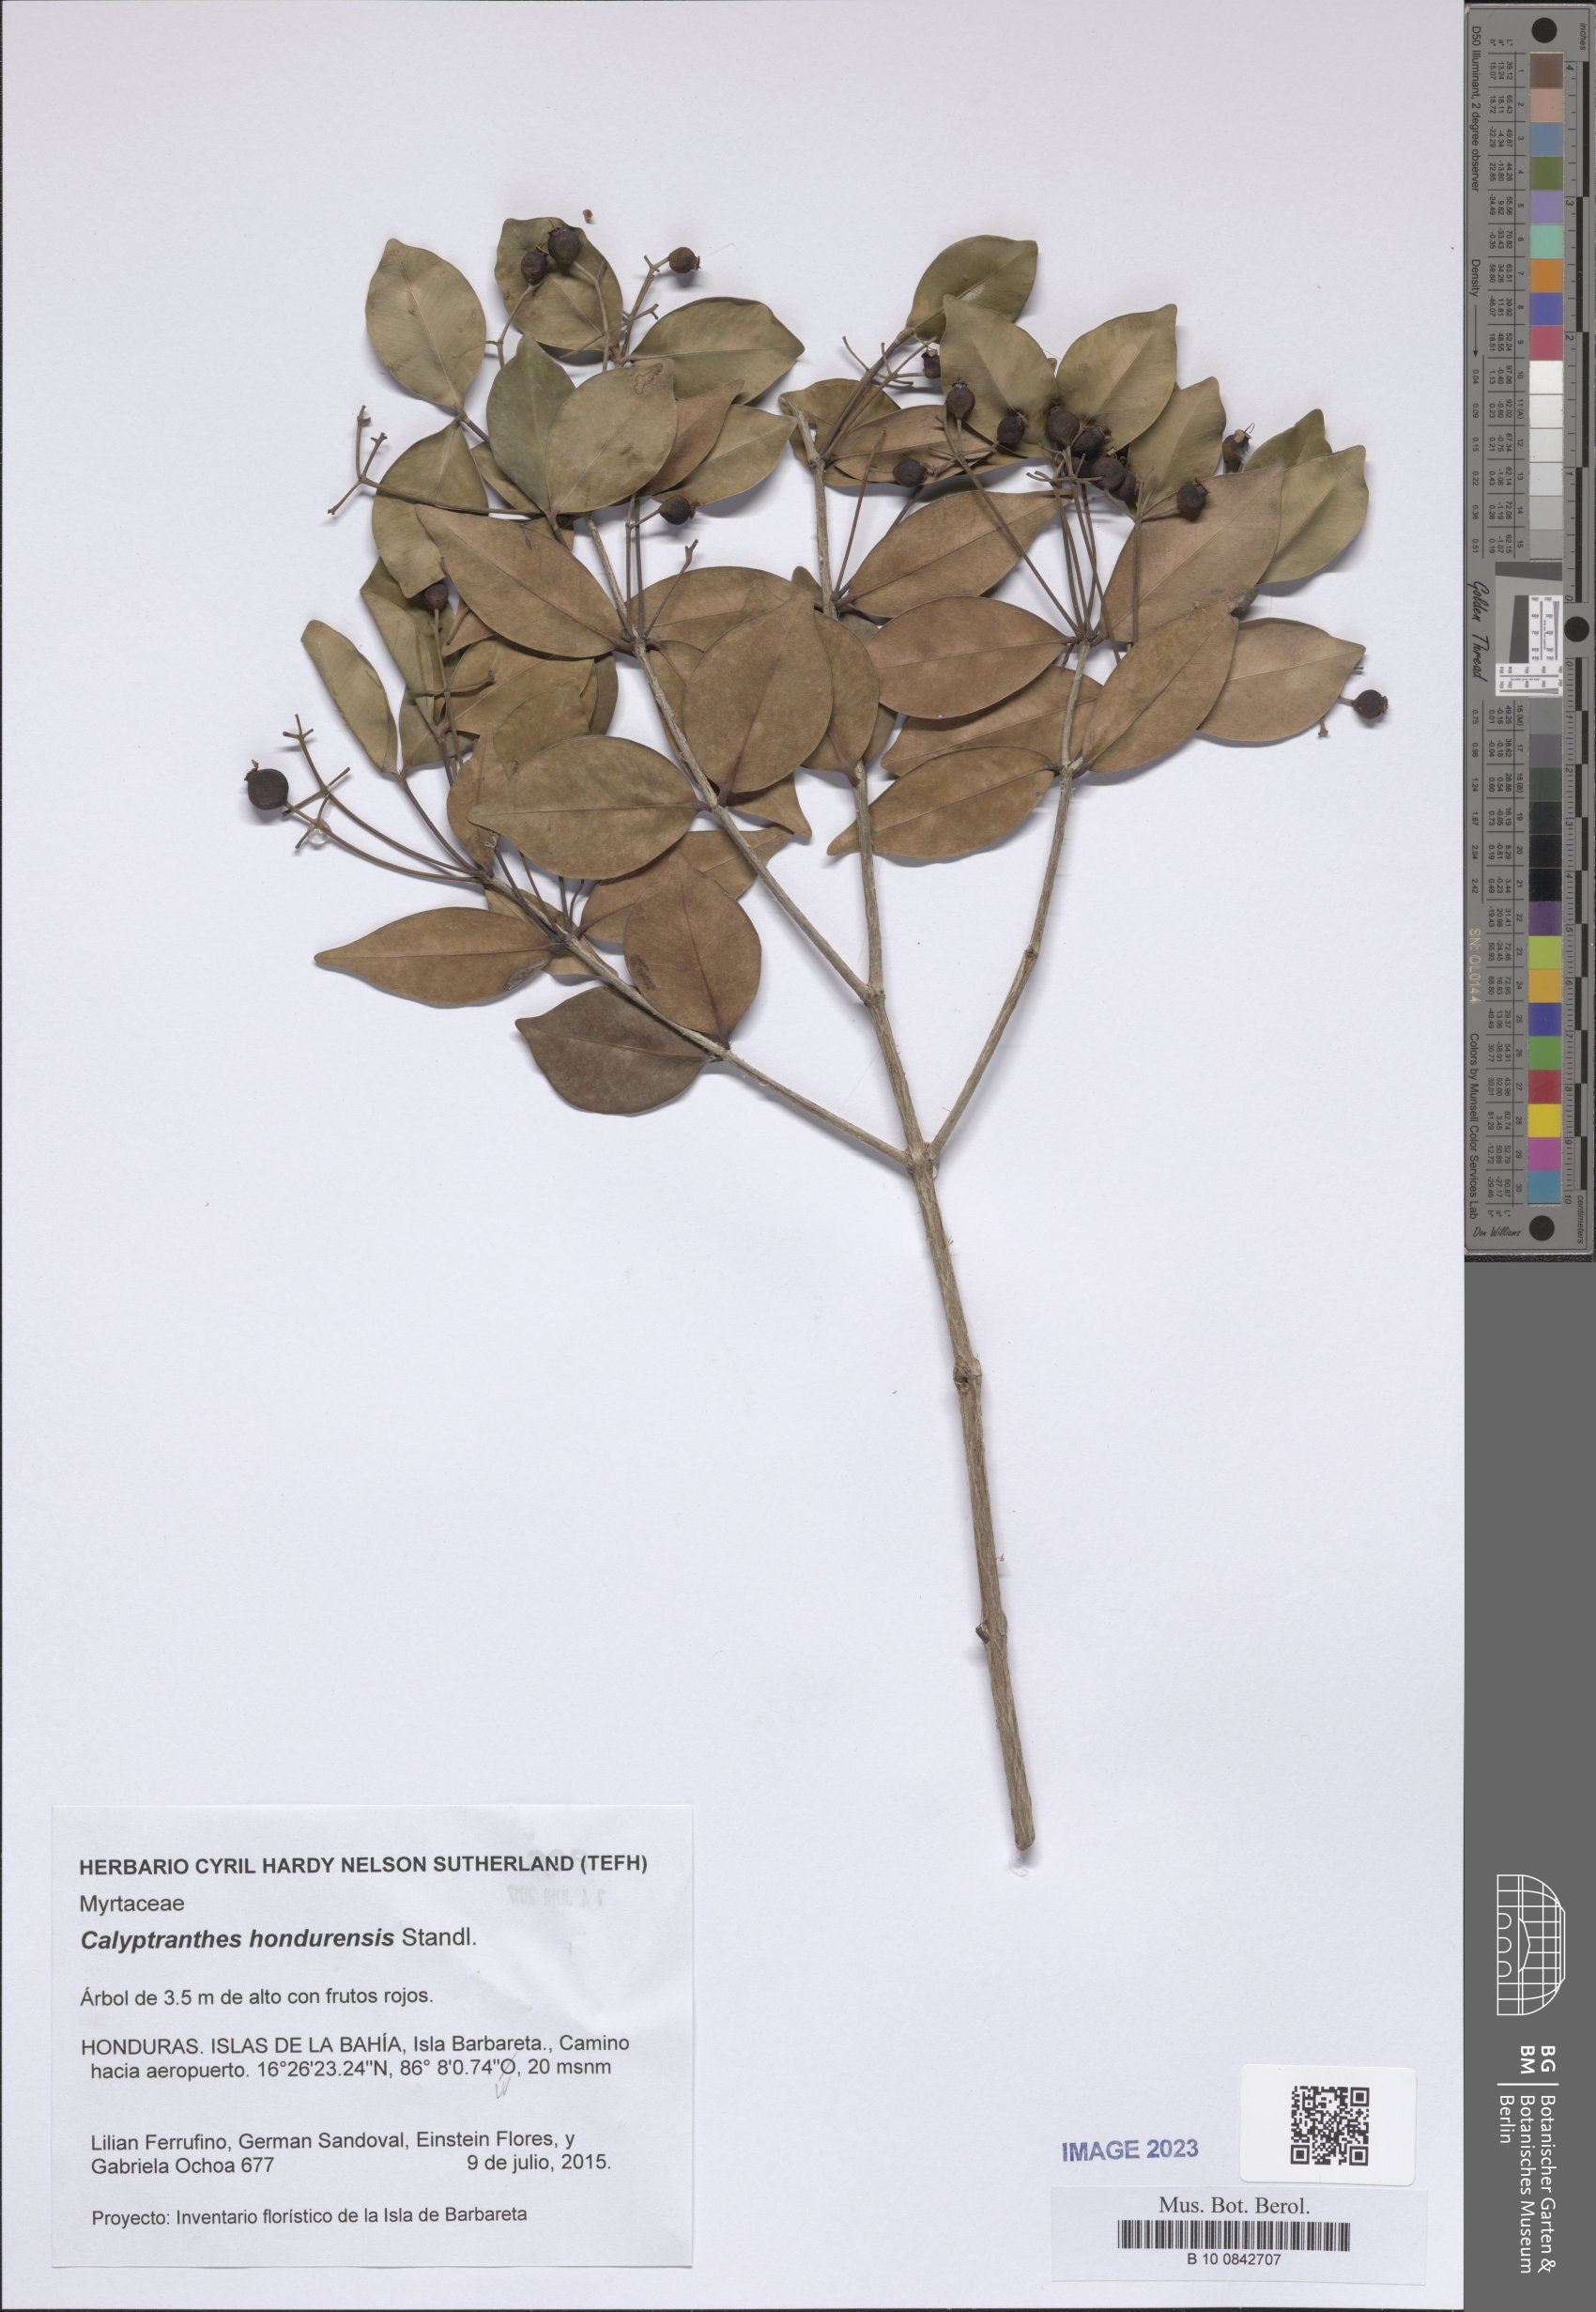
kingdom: Plantae
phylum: Tracheophyta
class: Magnoliopsida
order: Myrtales
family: Myrtaceae
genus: Myrcia
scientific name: Myrcia hondurensis
